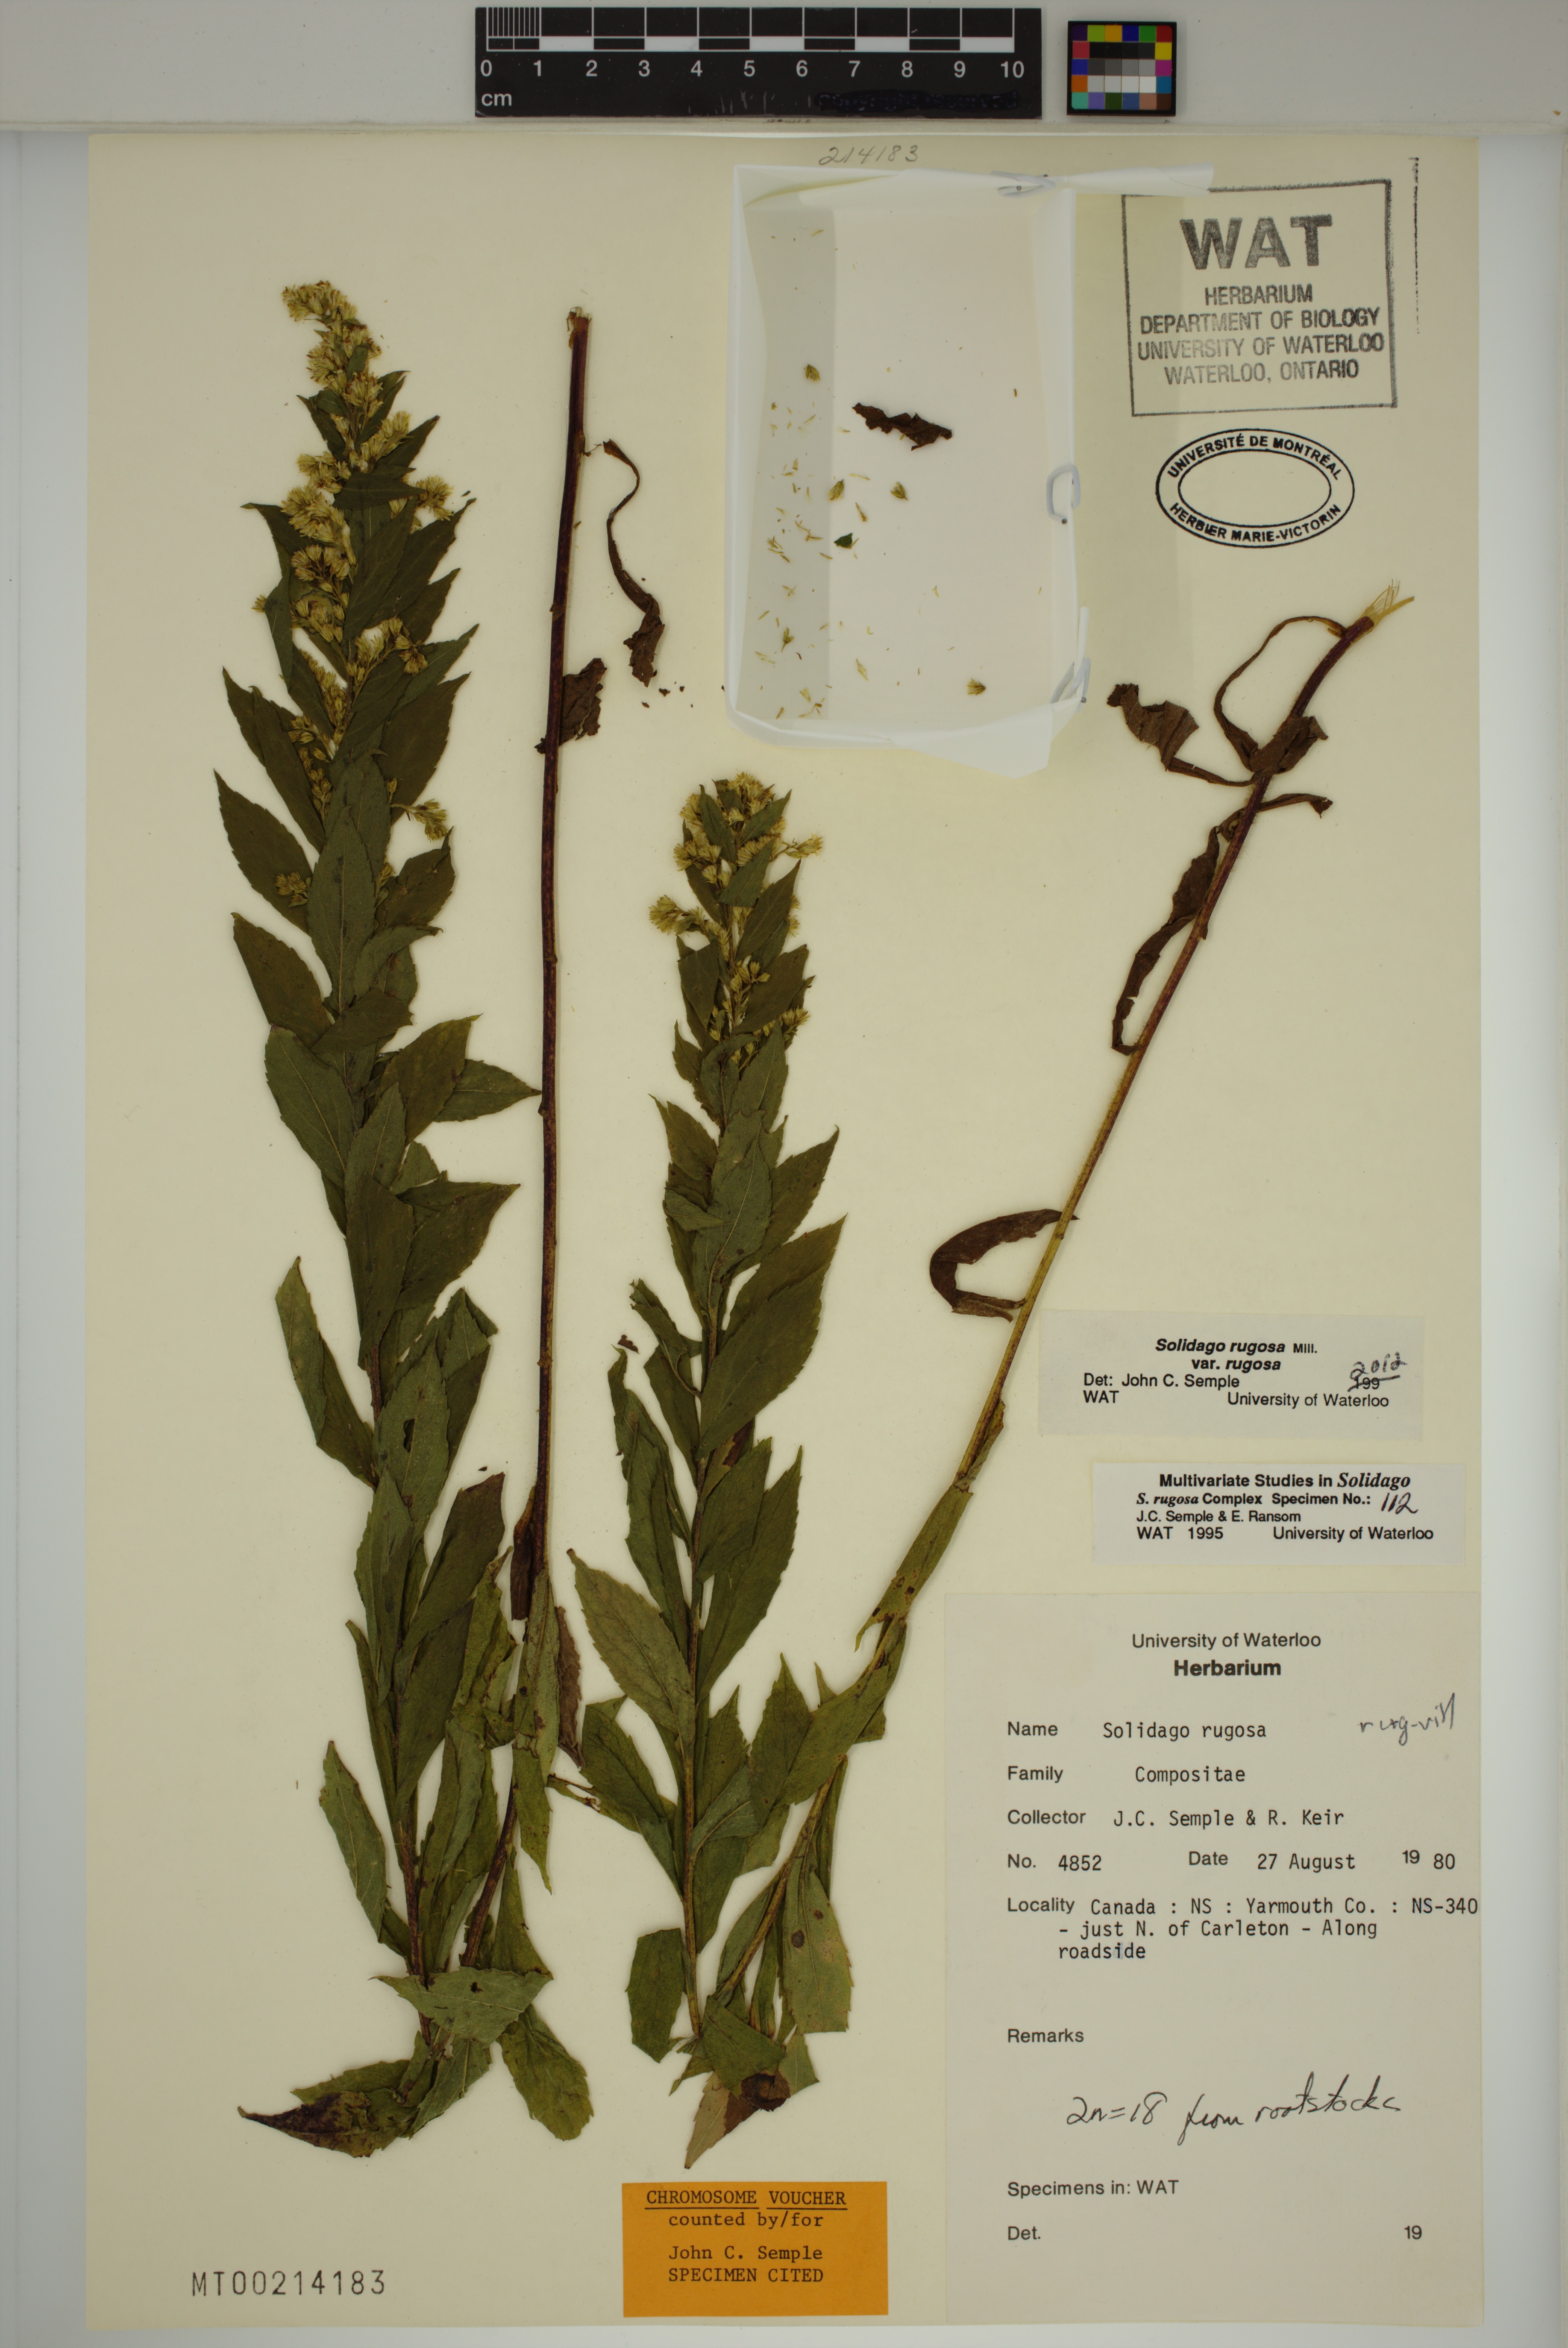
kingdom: Plantae
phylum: Tracheophyta
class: Magnoliopsida
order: Asterales
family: Asteraceae
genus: Solidago
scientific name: Solidago rugosa
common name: Rough-stemmed goldenrod
